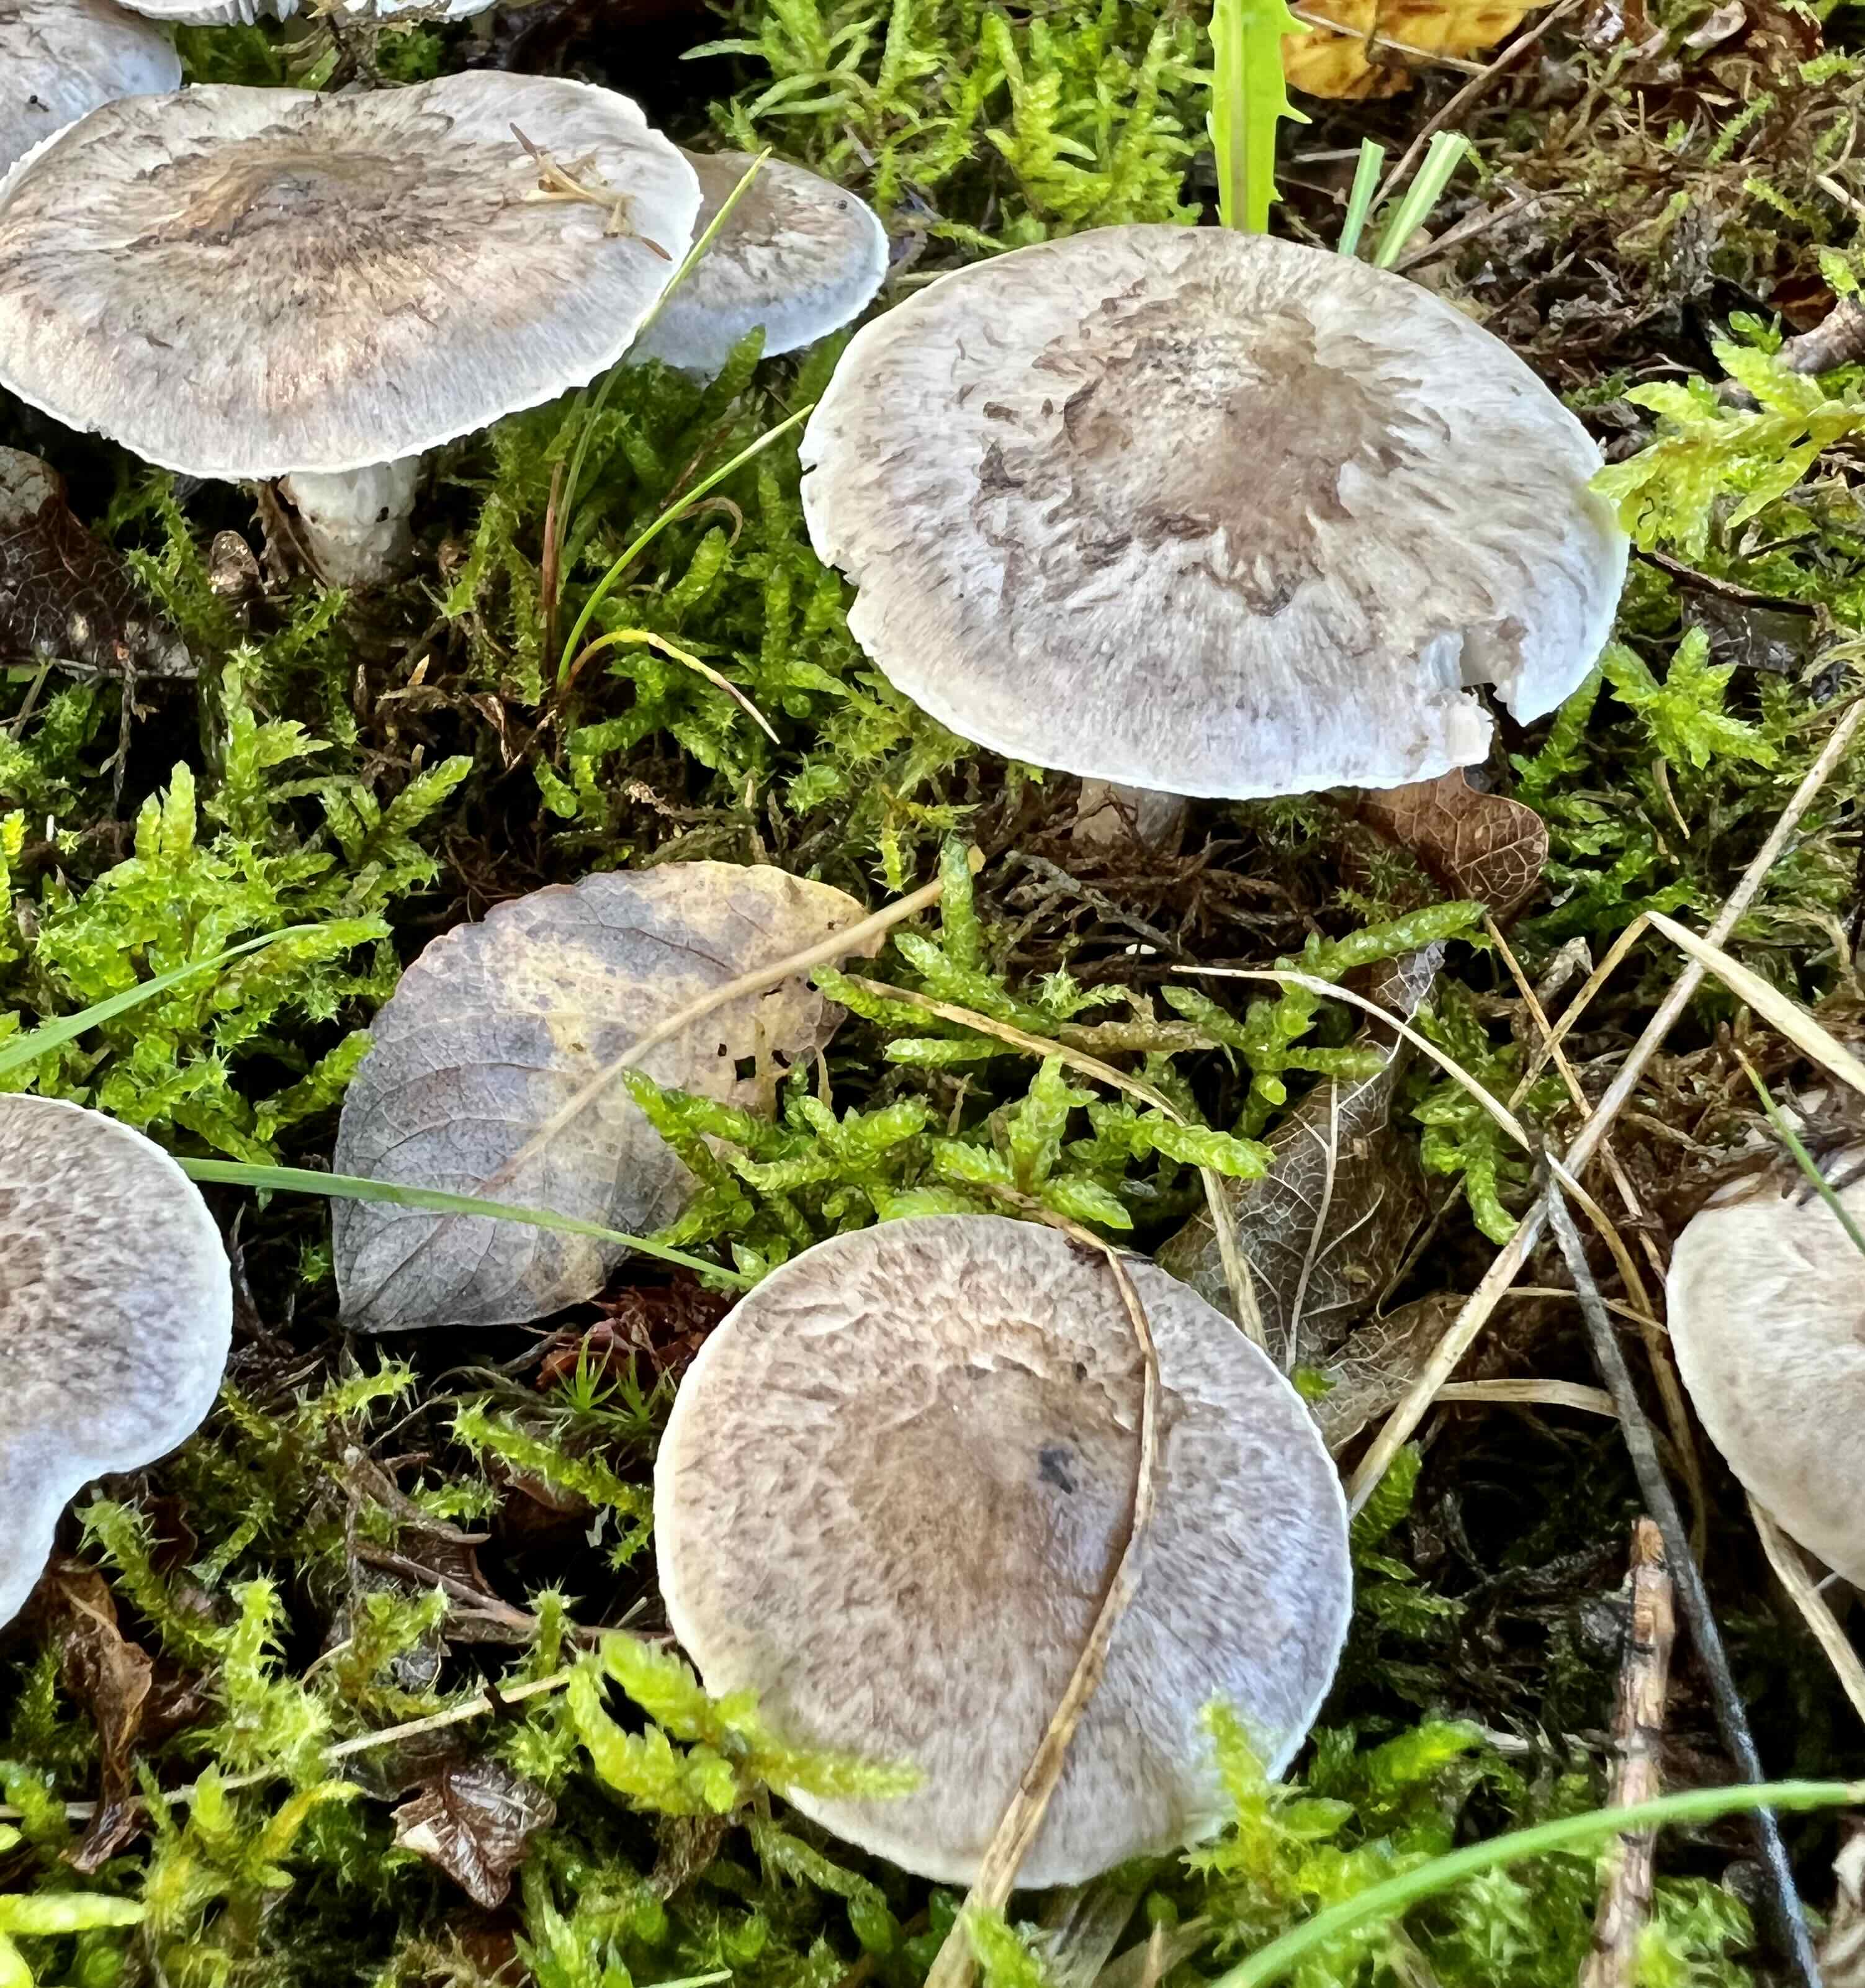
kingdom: Fungi
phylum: Basidiomycota
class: Agaricomycetes
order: Agaricales
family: Tricholomataceae
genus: Tricholoma
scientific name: Tricholoma cingulatum
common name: ring-ridderhat
